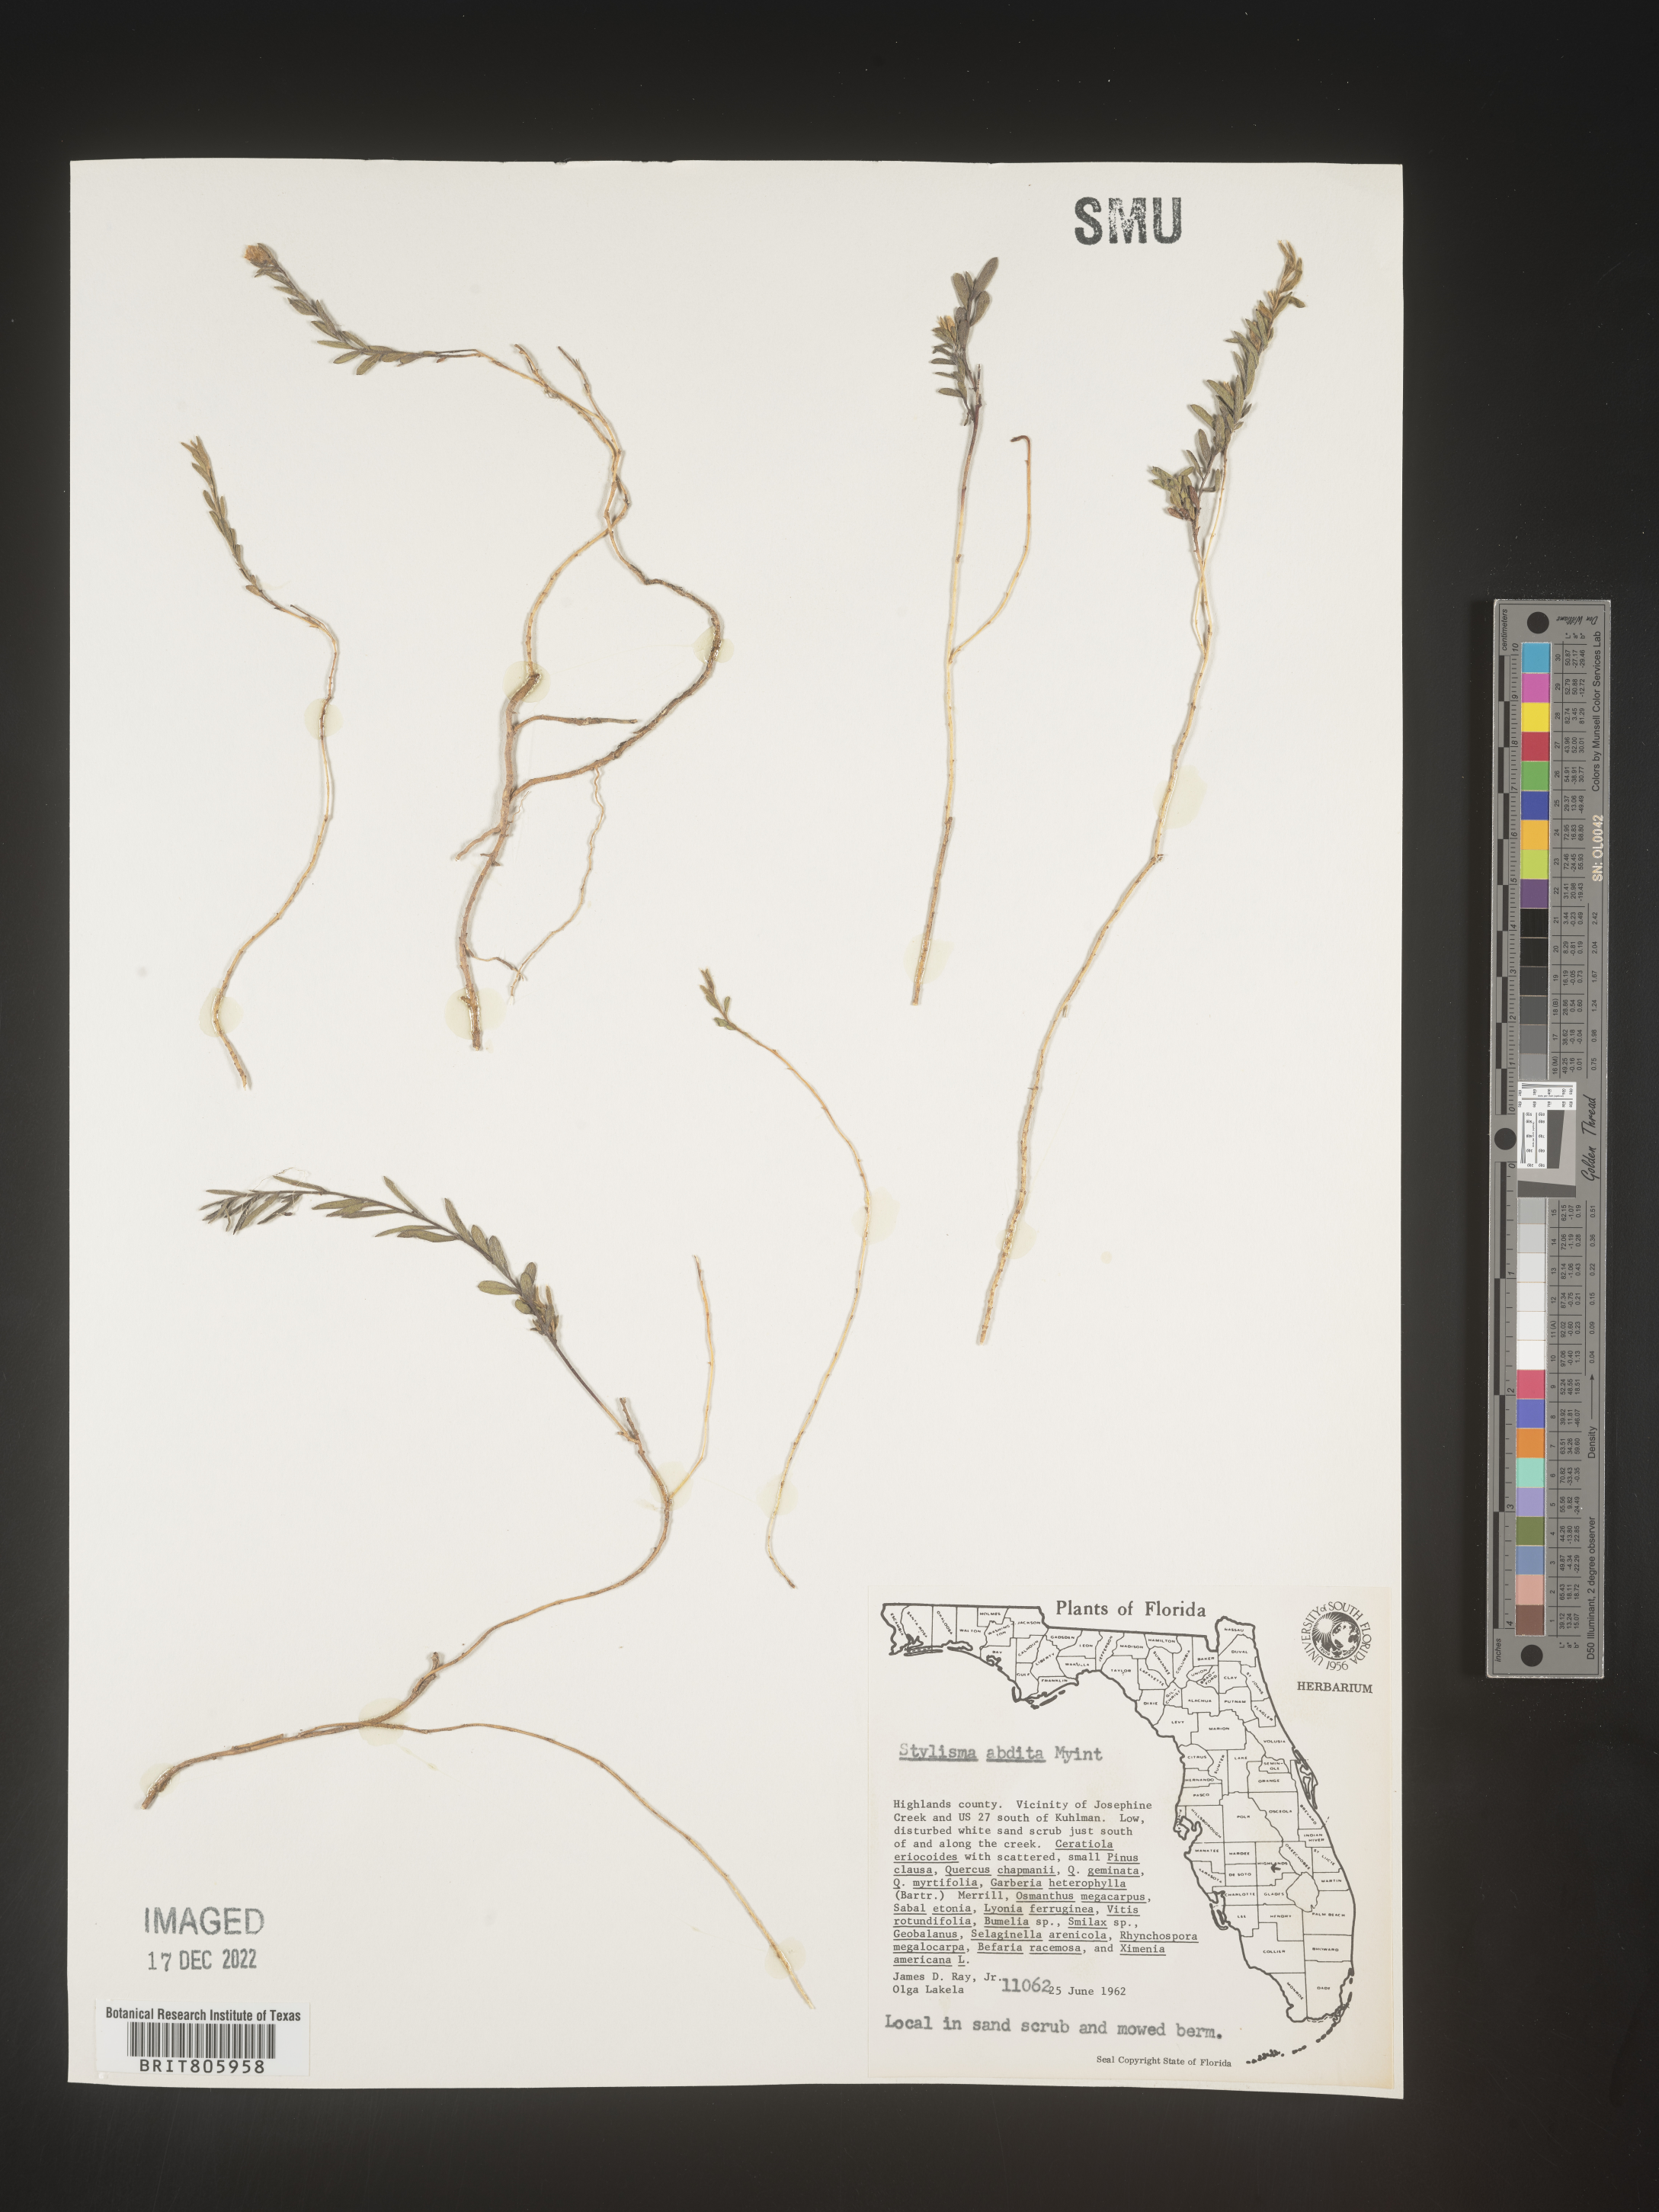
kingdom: Plantae
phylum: Tracheophyta
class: Magnoliopsida
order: Solanales
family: Convolvulaceae
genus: Stylisma
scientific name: Stylisma
